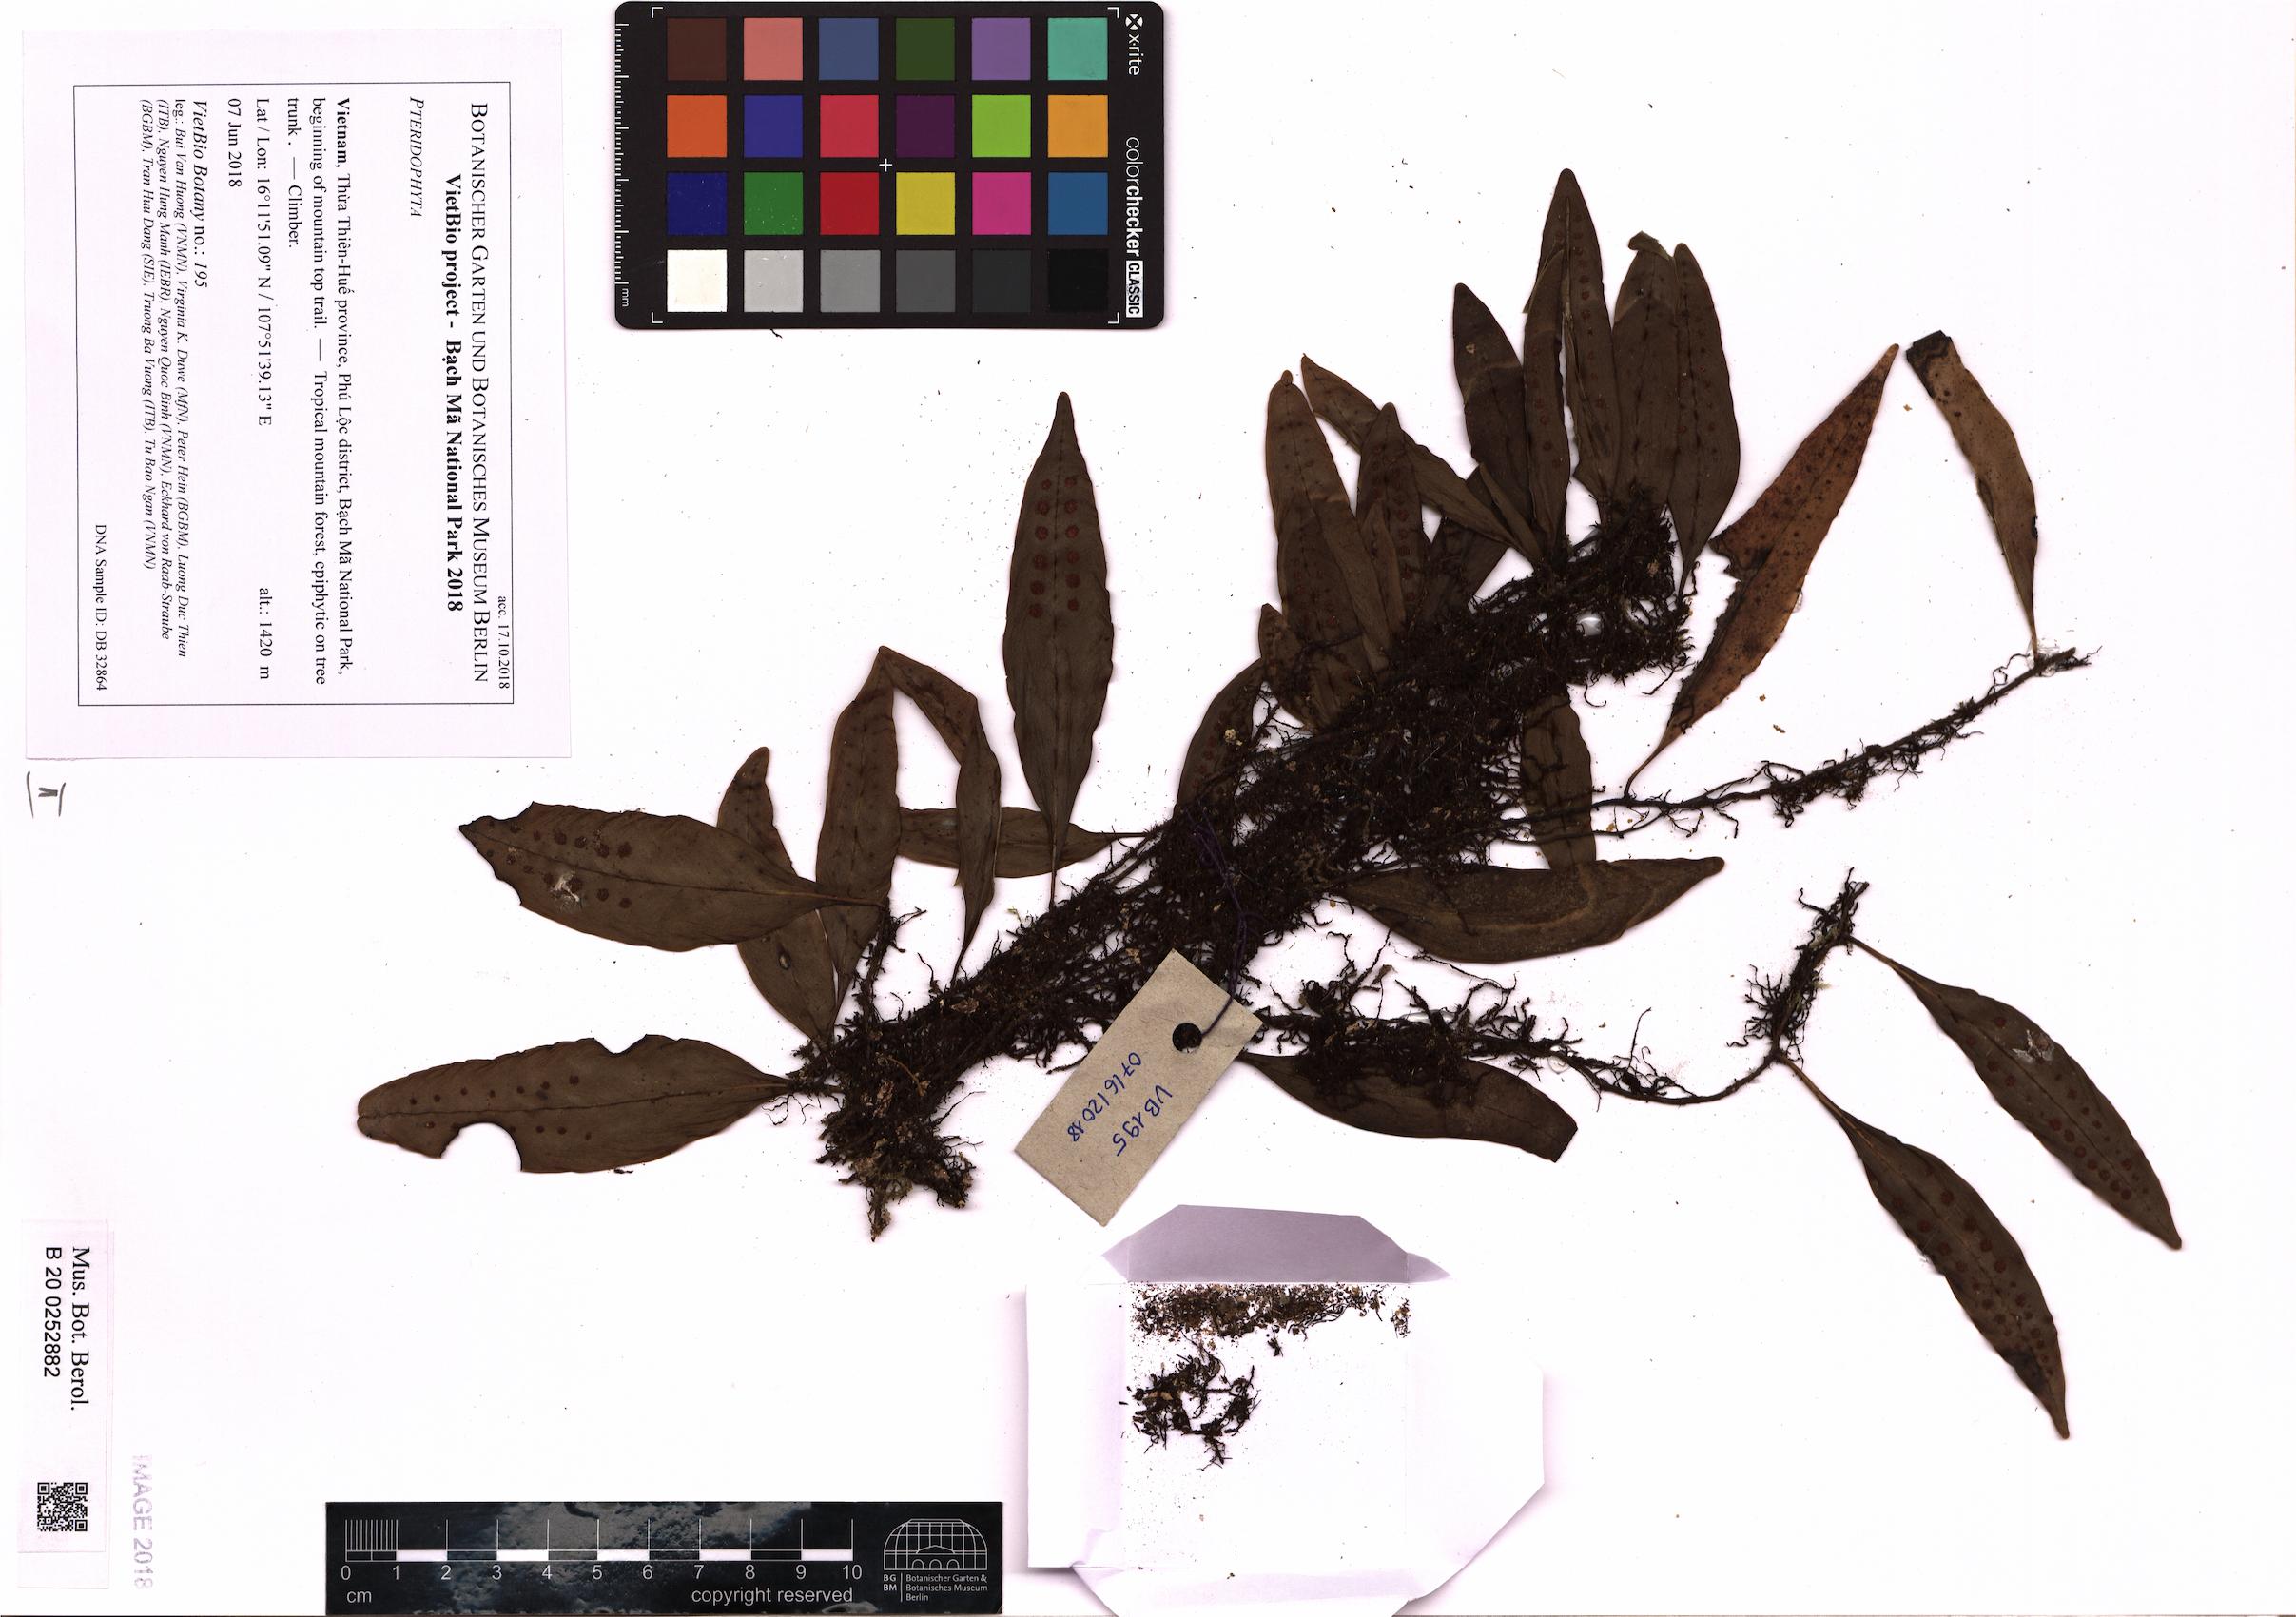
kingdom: Plantae
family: Pteridophyta
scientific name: Pteridophyta
